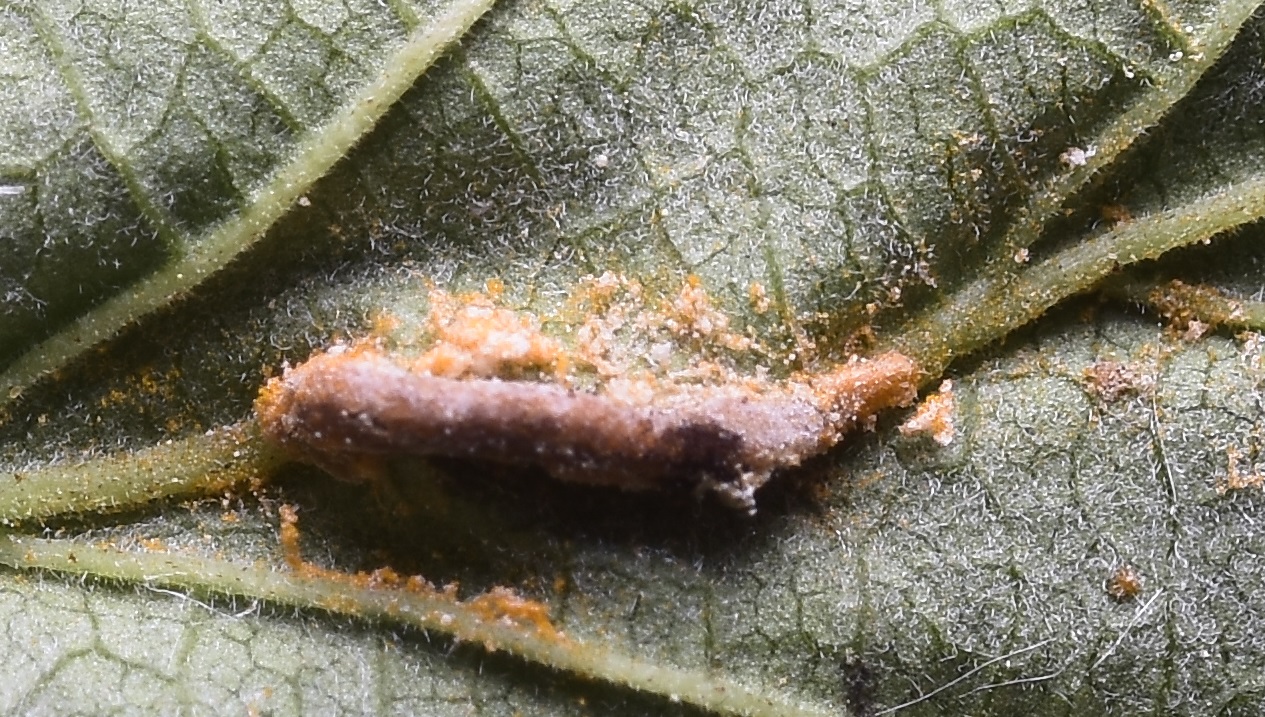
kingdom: Fungi
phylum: Basidiomycota
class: Pucciniomycetes
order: Pucciniales
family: Raveneliaceae
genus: Triphragmium
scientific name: Triphragmium ulmariae
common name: almindelig mjødurtrust
